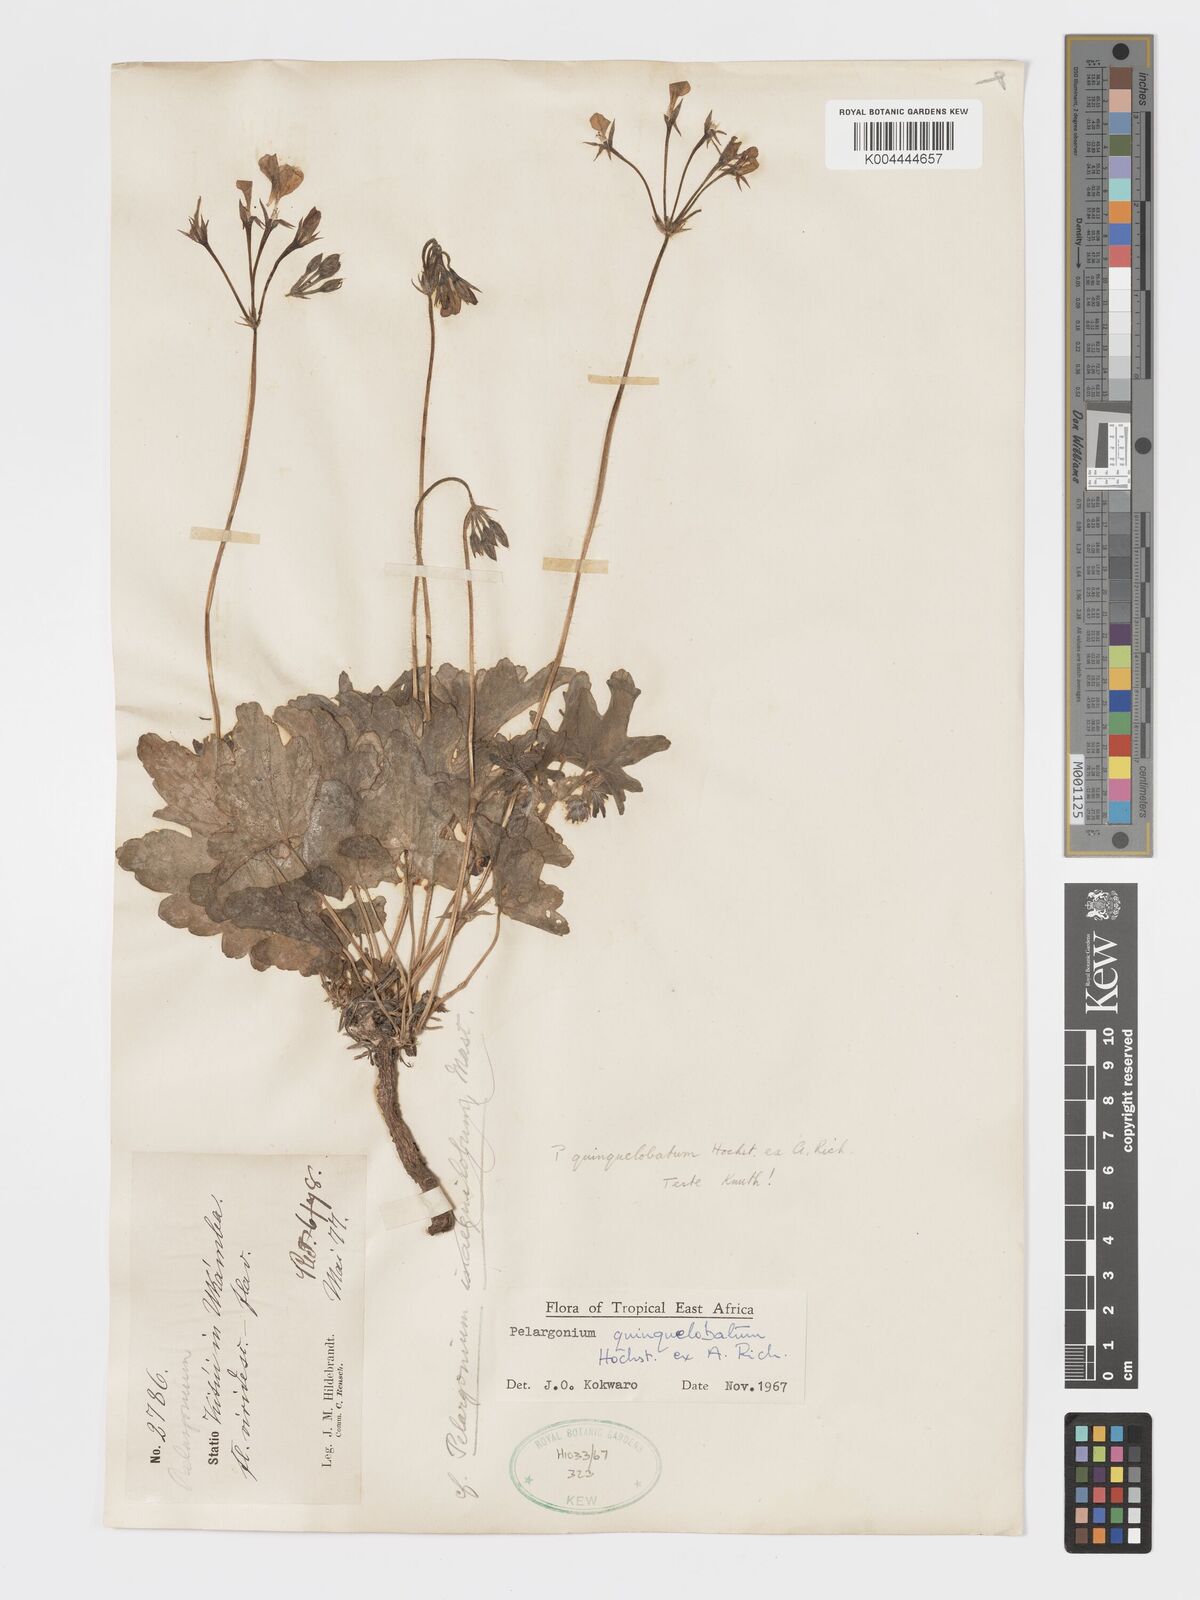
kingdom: Plantae
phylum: Tracheophyta
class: Magnoliopsida
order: Geraniales
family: Geraniaceae
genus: Pelargonium
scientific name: Pelargonium quinquelobatum
